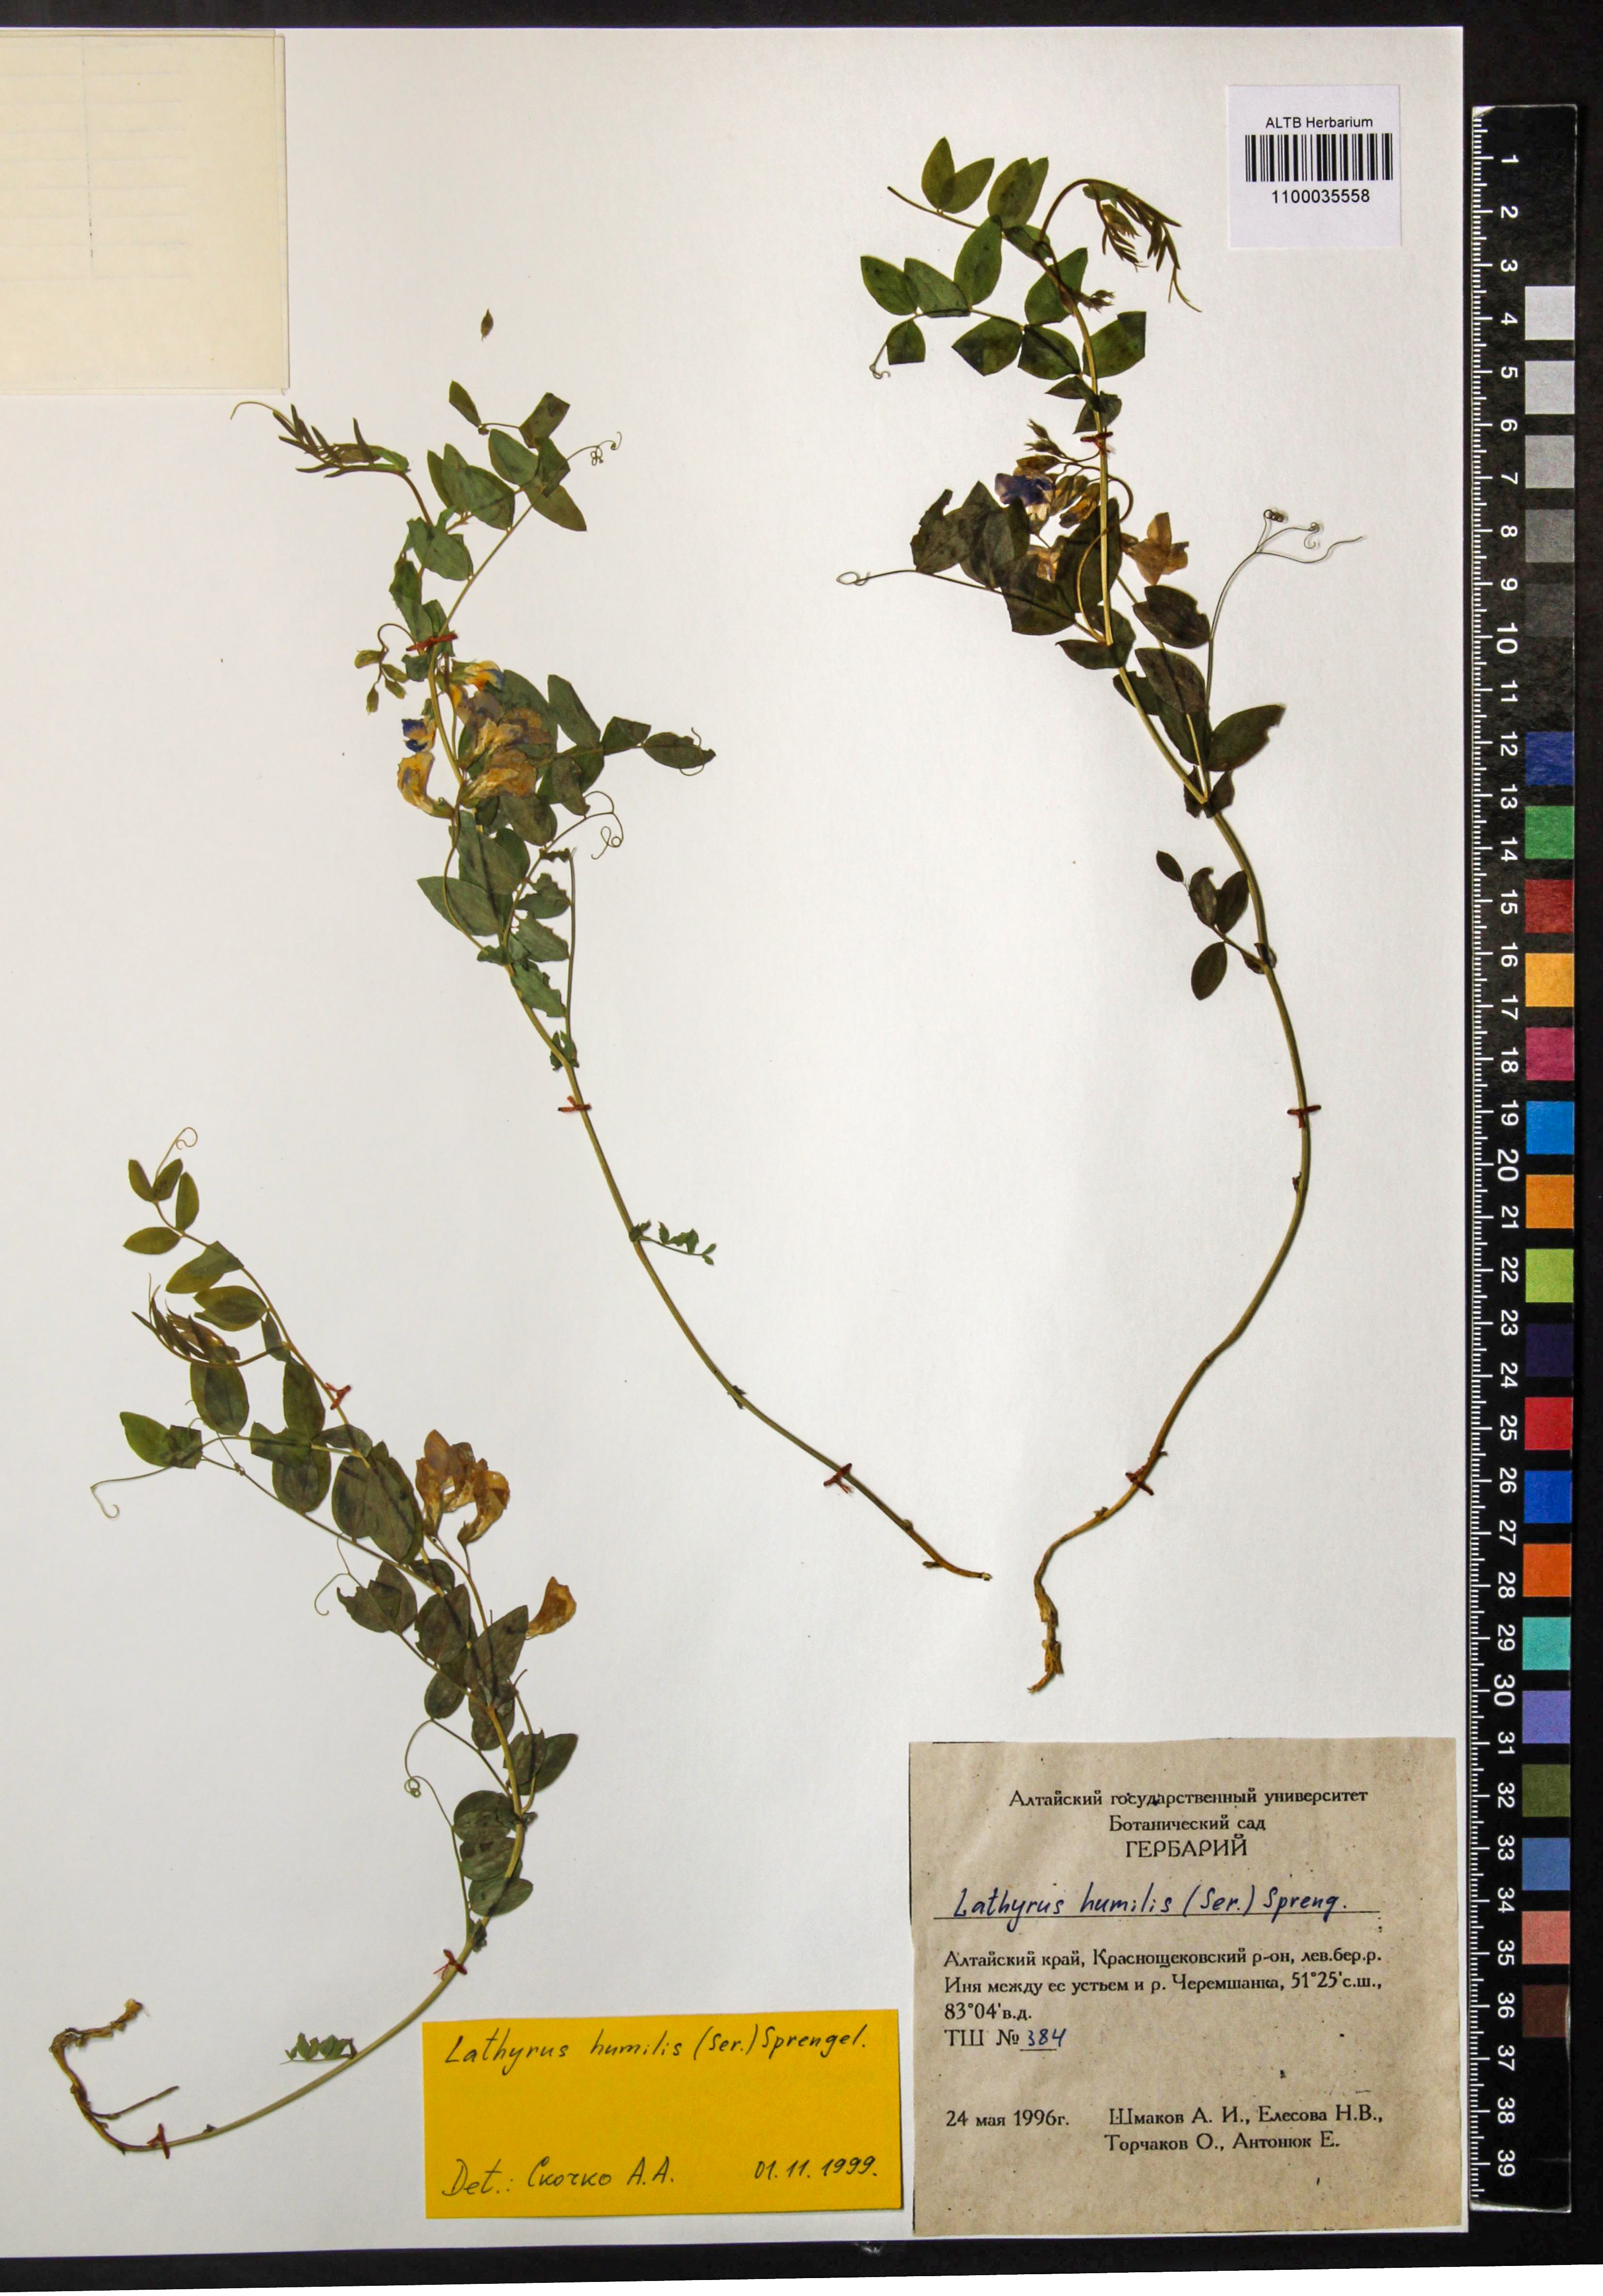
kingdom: Plantae
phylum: Tracheophyta
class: Magnoliopsida
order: Fabales
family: Fabaceae
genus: Lathyrus
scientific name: Lathyrus humilis
